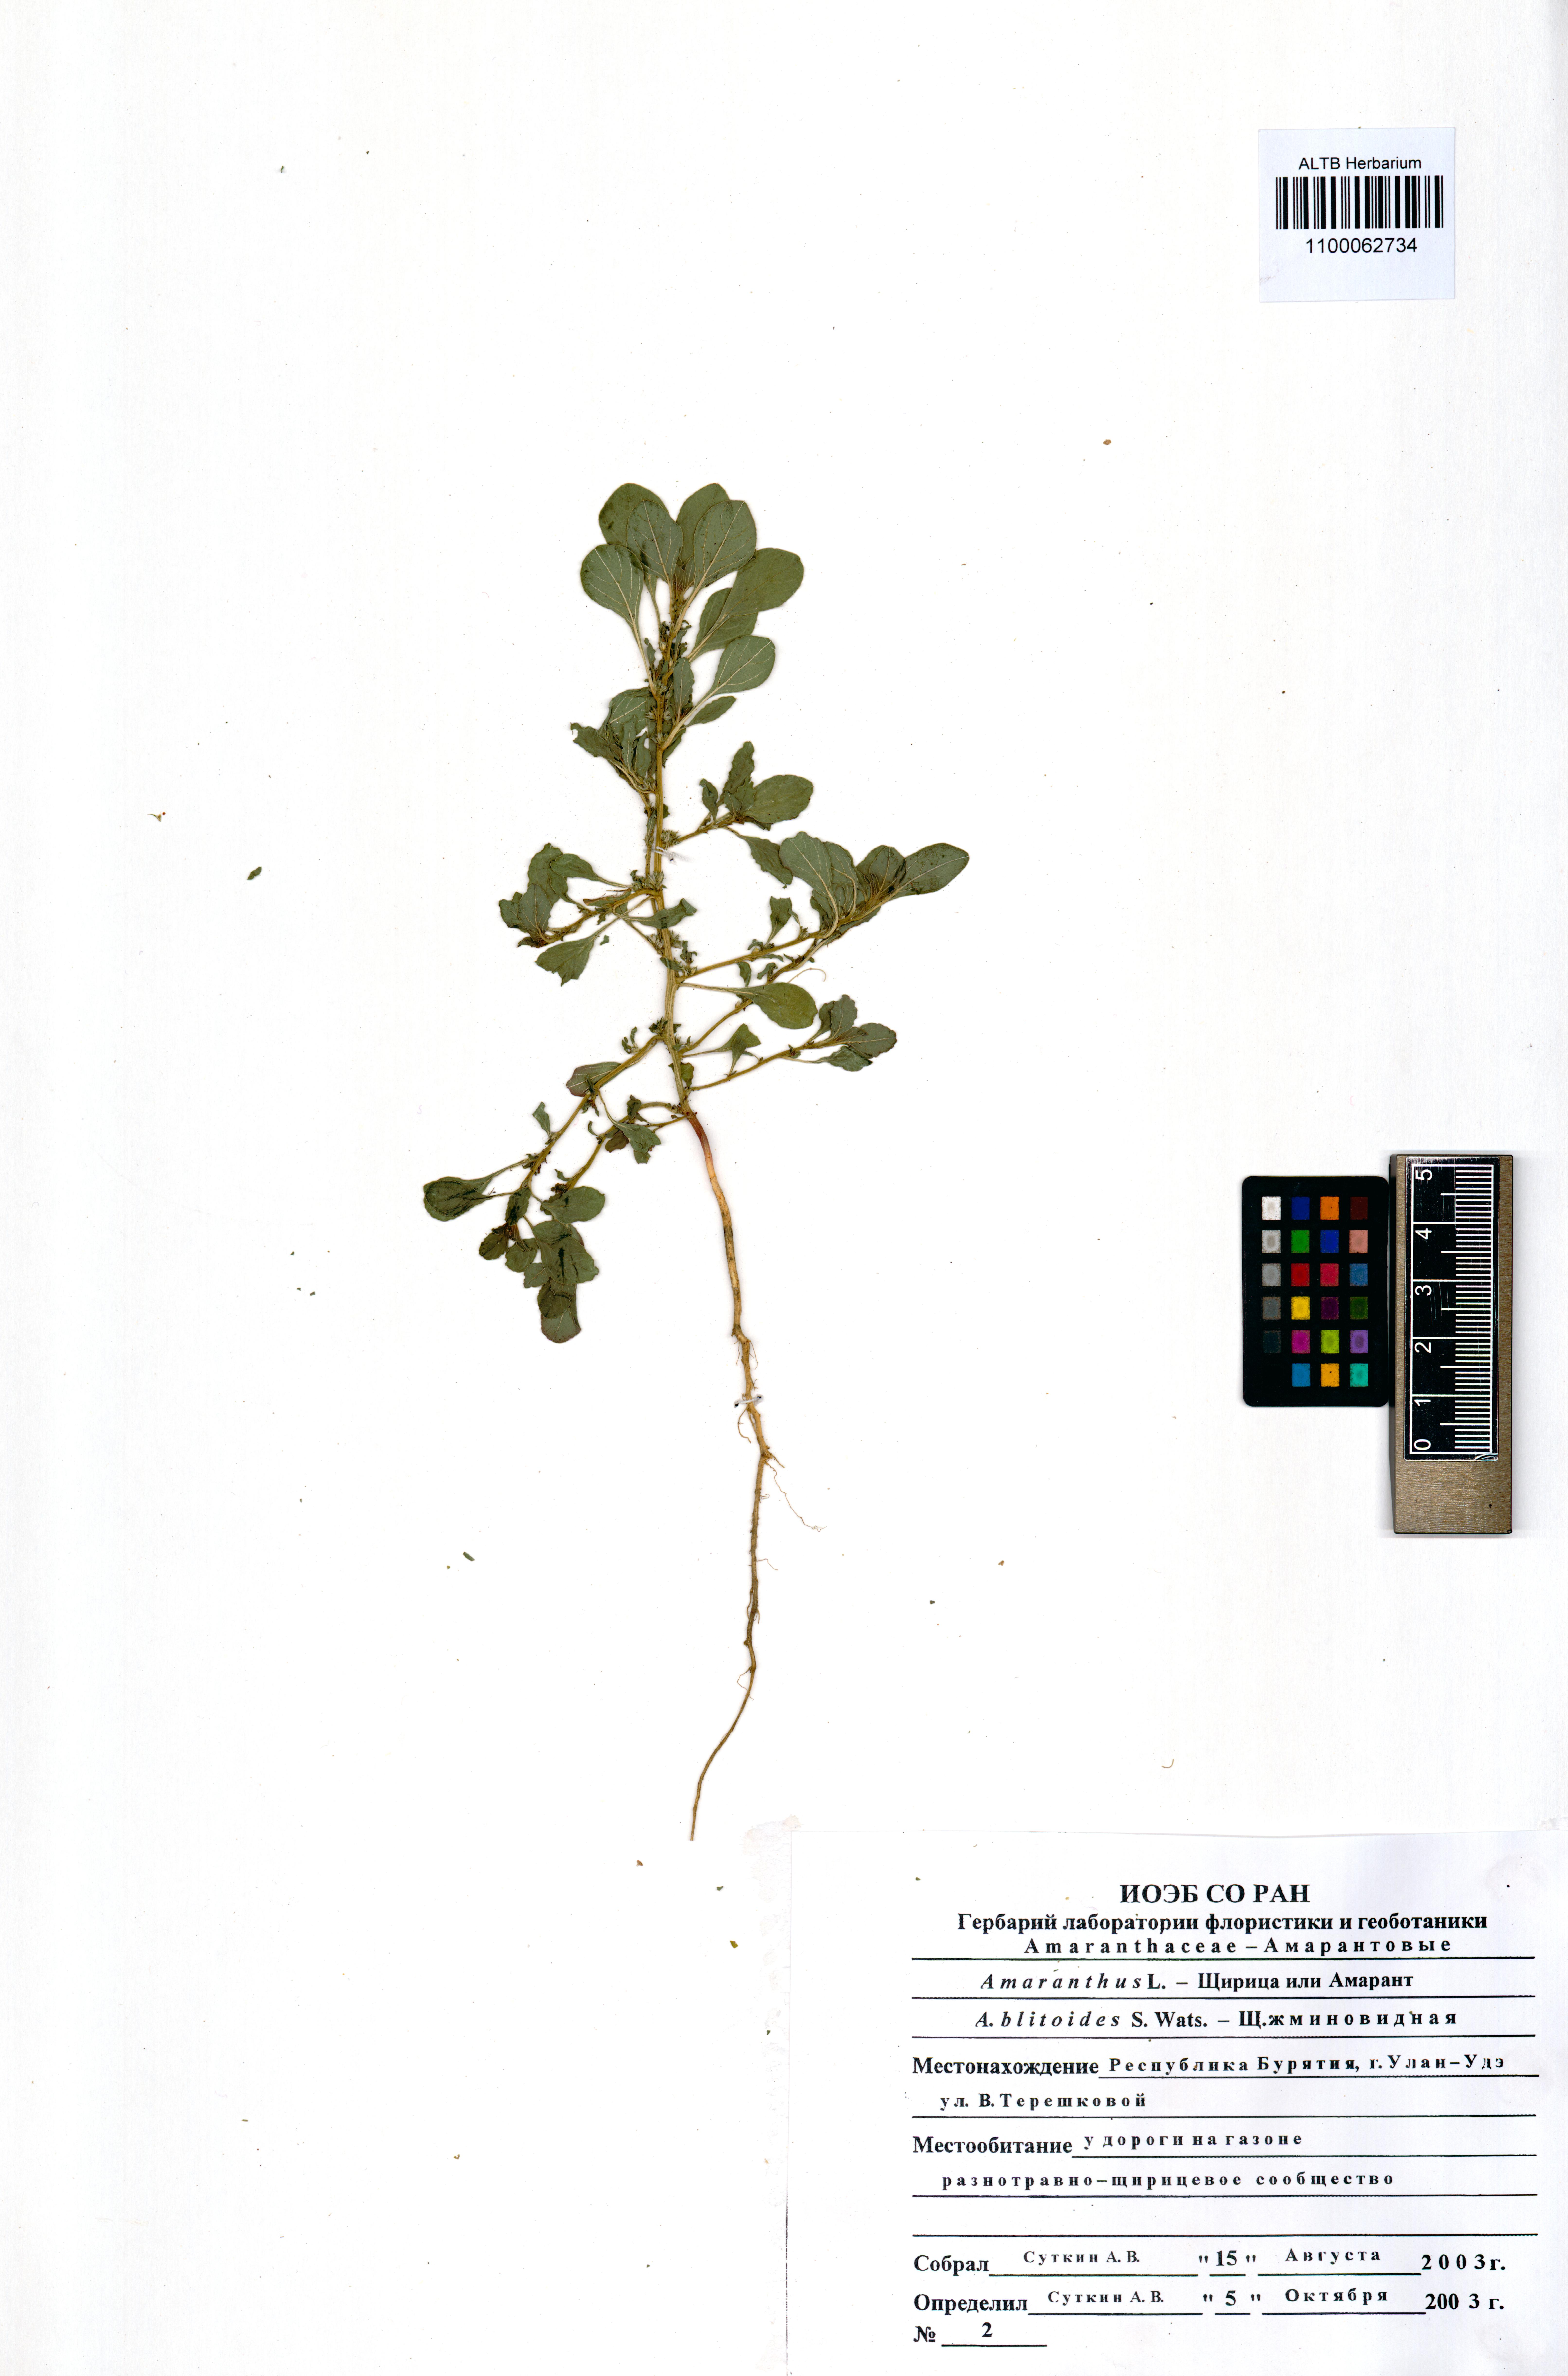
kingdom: Plantae
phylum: Tracheophyta
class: Magnoliopsida
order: Caryophyllales
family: Amaranthaceae
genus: Amaranthus
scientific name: Amaranthus blitoides
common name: Prostrate pigweed
